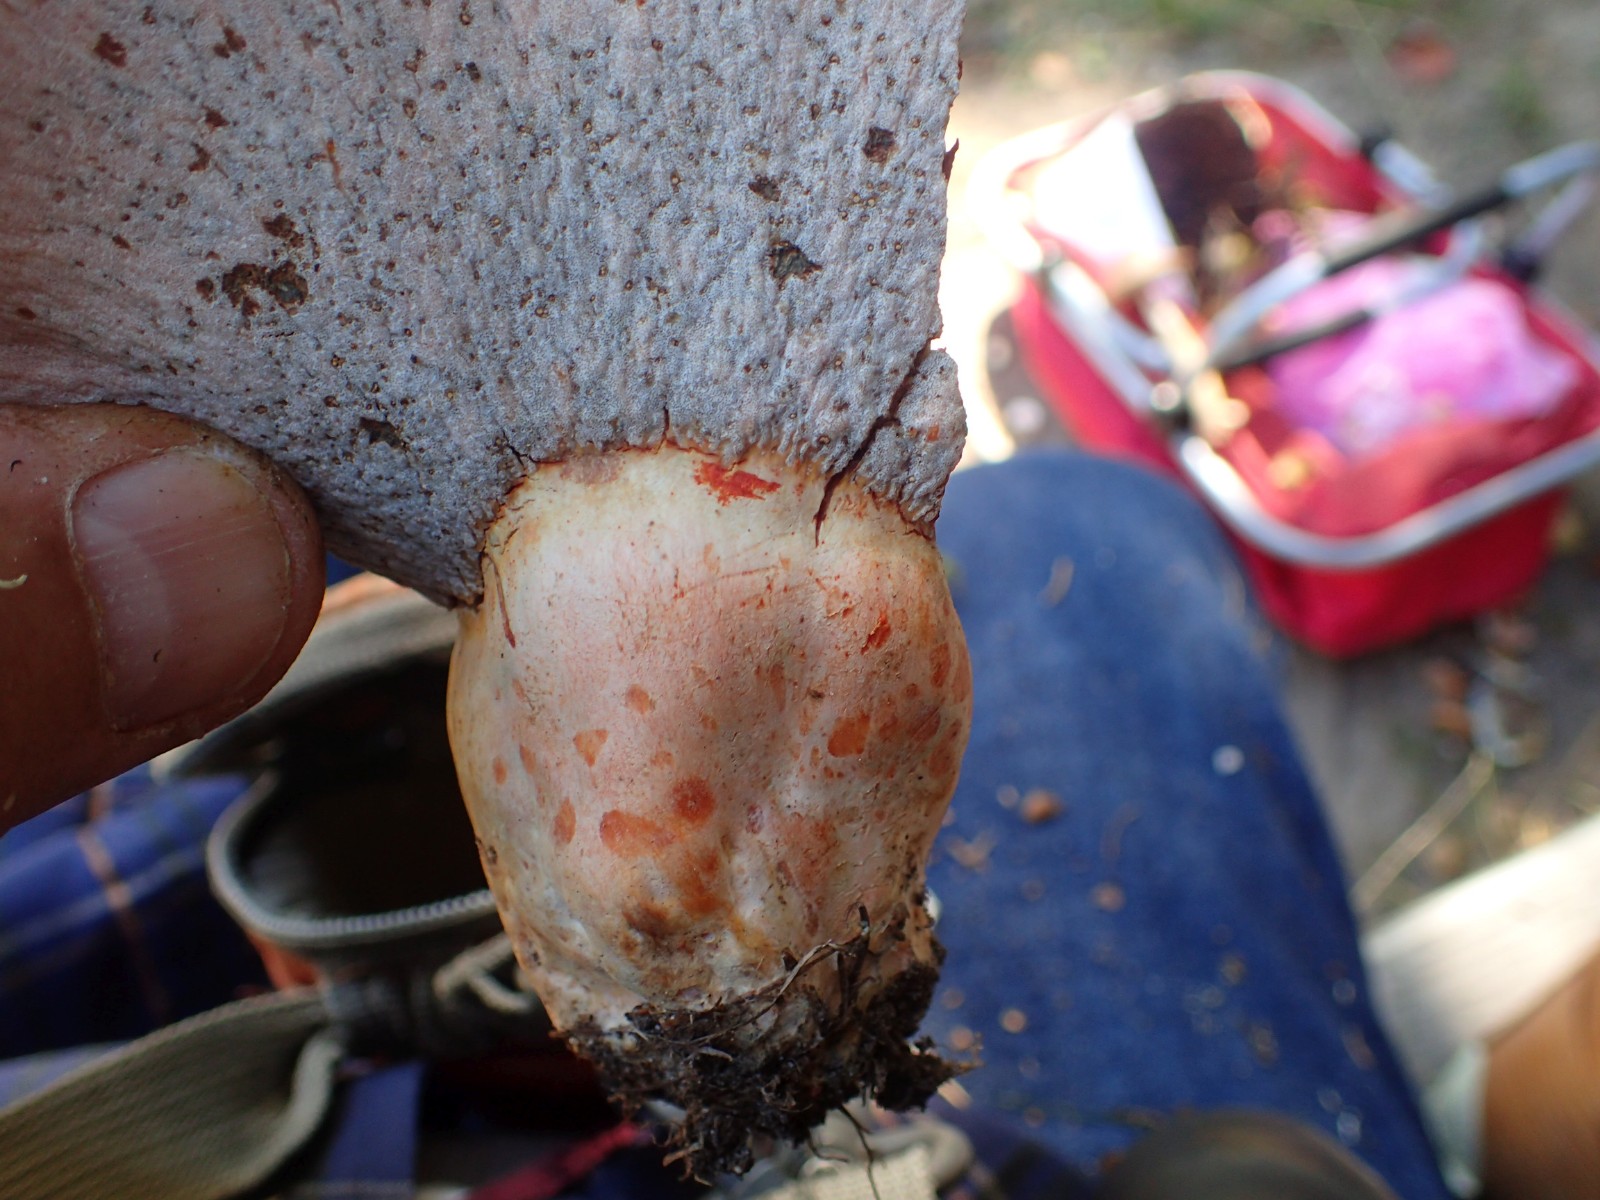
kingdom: Fungi
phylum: Basidiomycota
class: Agaricomycetes
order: Russulales
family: Russulaceae
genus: Lactarius
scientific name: Lactarius deliciosus
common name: velsmagende mælkehat
